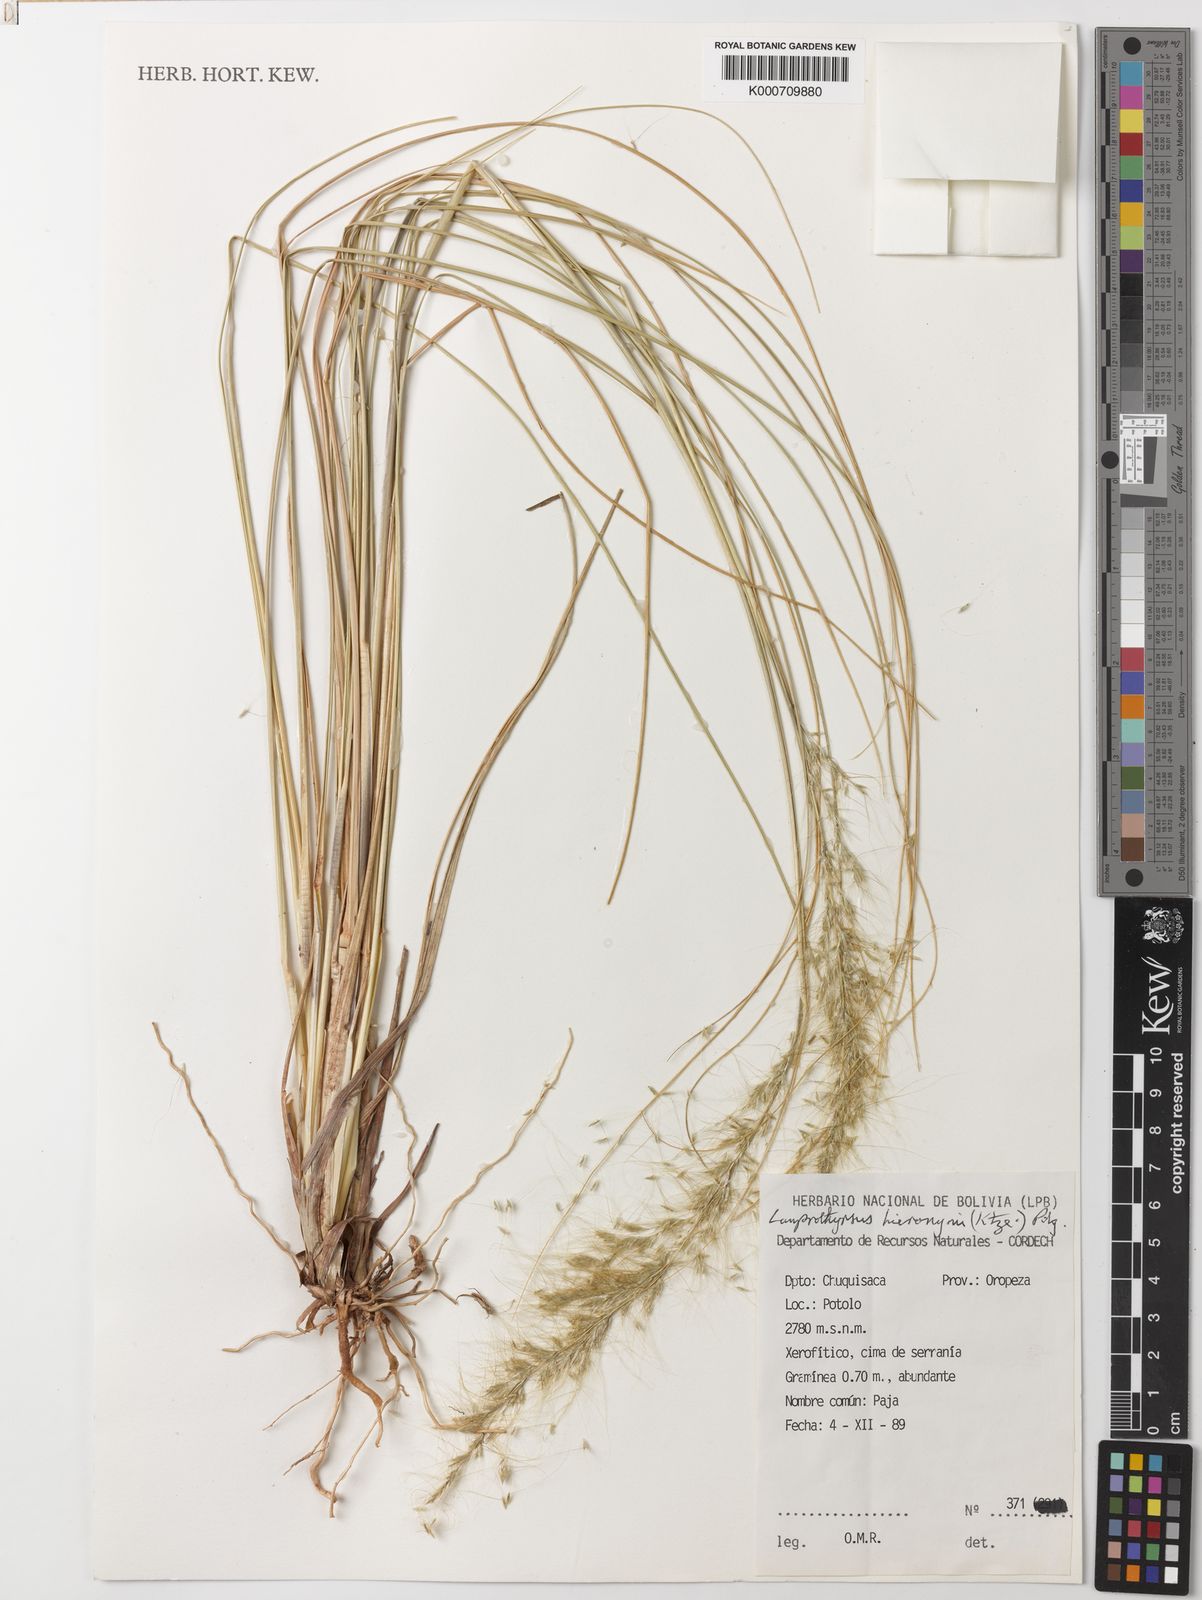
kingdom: Plantae
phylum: Tracheophyta
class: Liliopsida
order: Poales
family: Poaceae
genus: Cortaderia
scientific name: Cortaderia hieronymi
